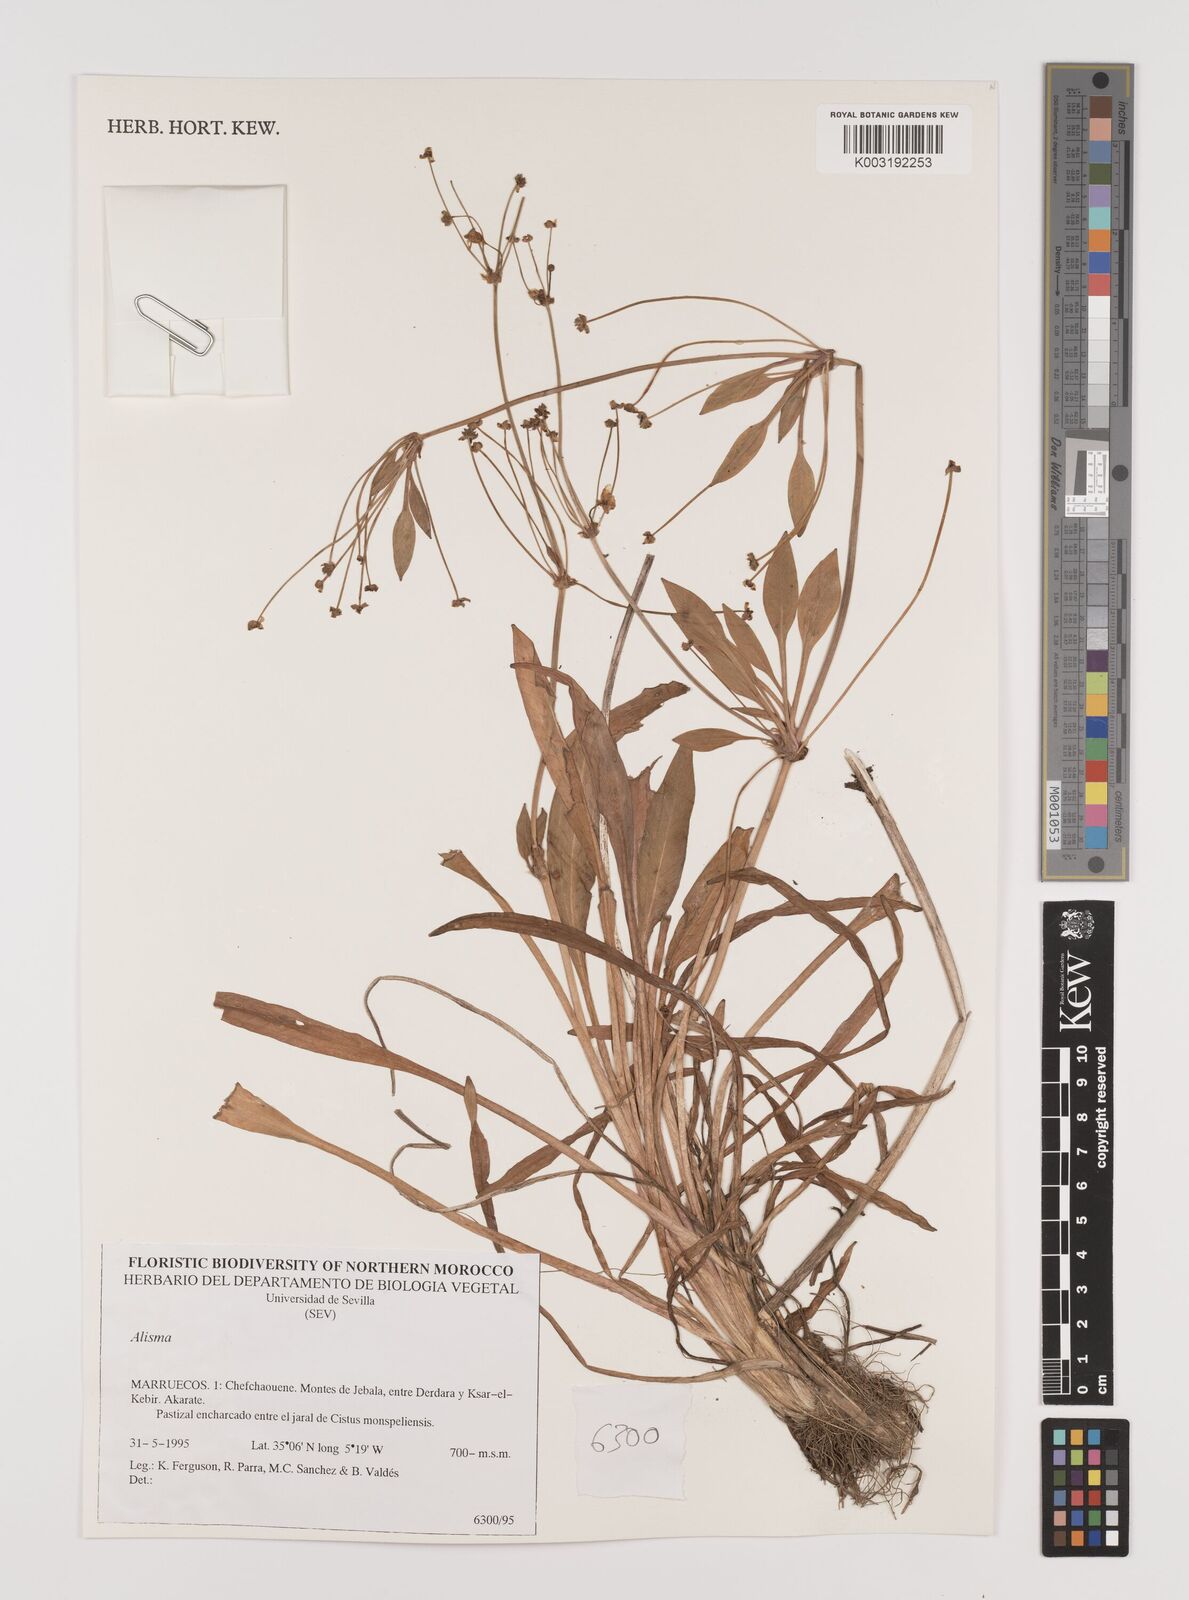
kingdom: Plantae
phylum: Tracheophyta
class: Liliopsida
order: Alismatales
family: Alismataceae
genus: Alisma
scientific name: Alisma
